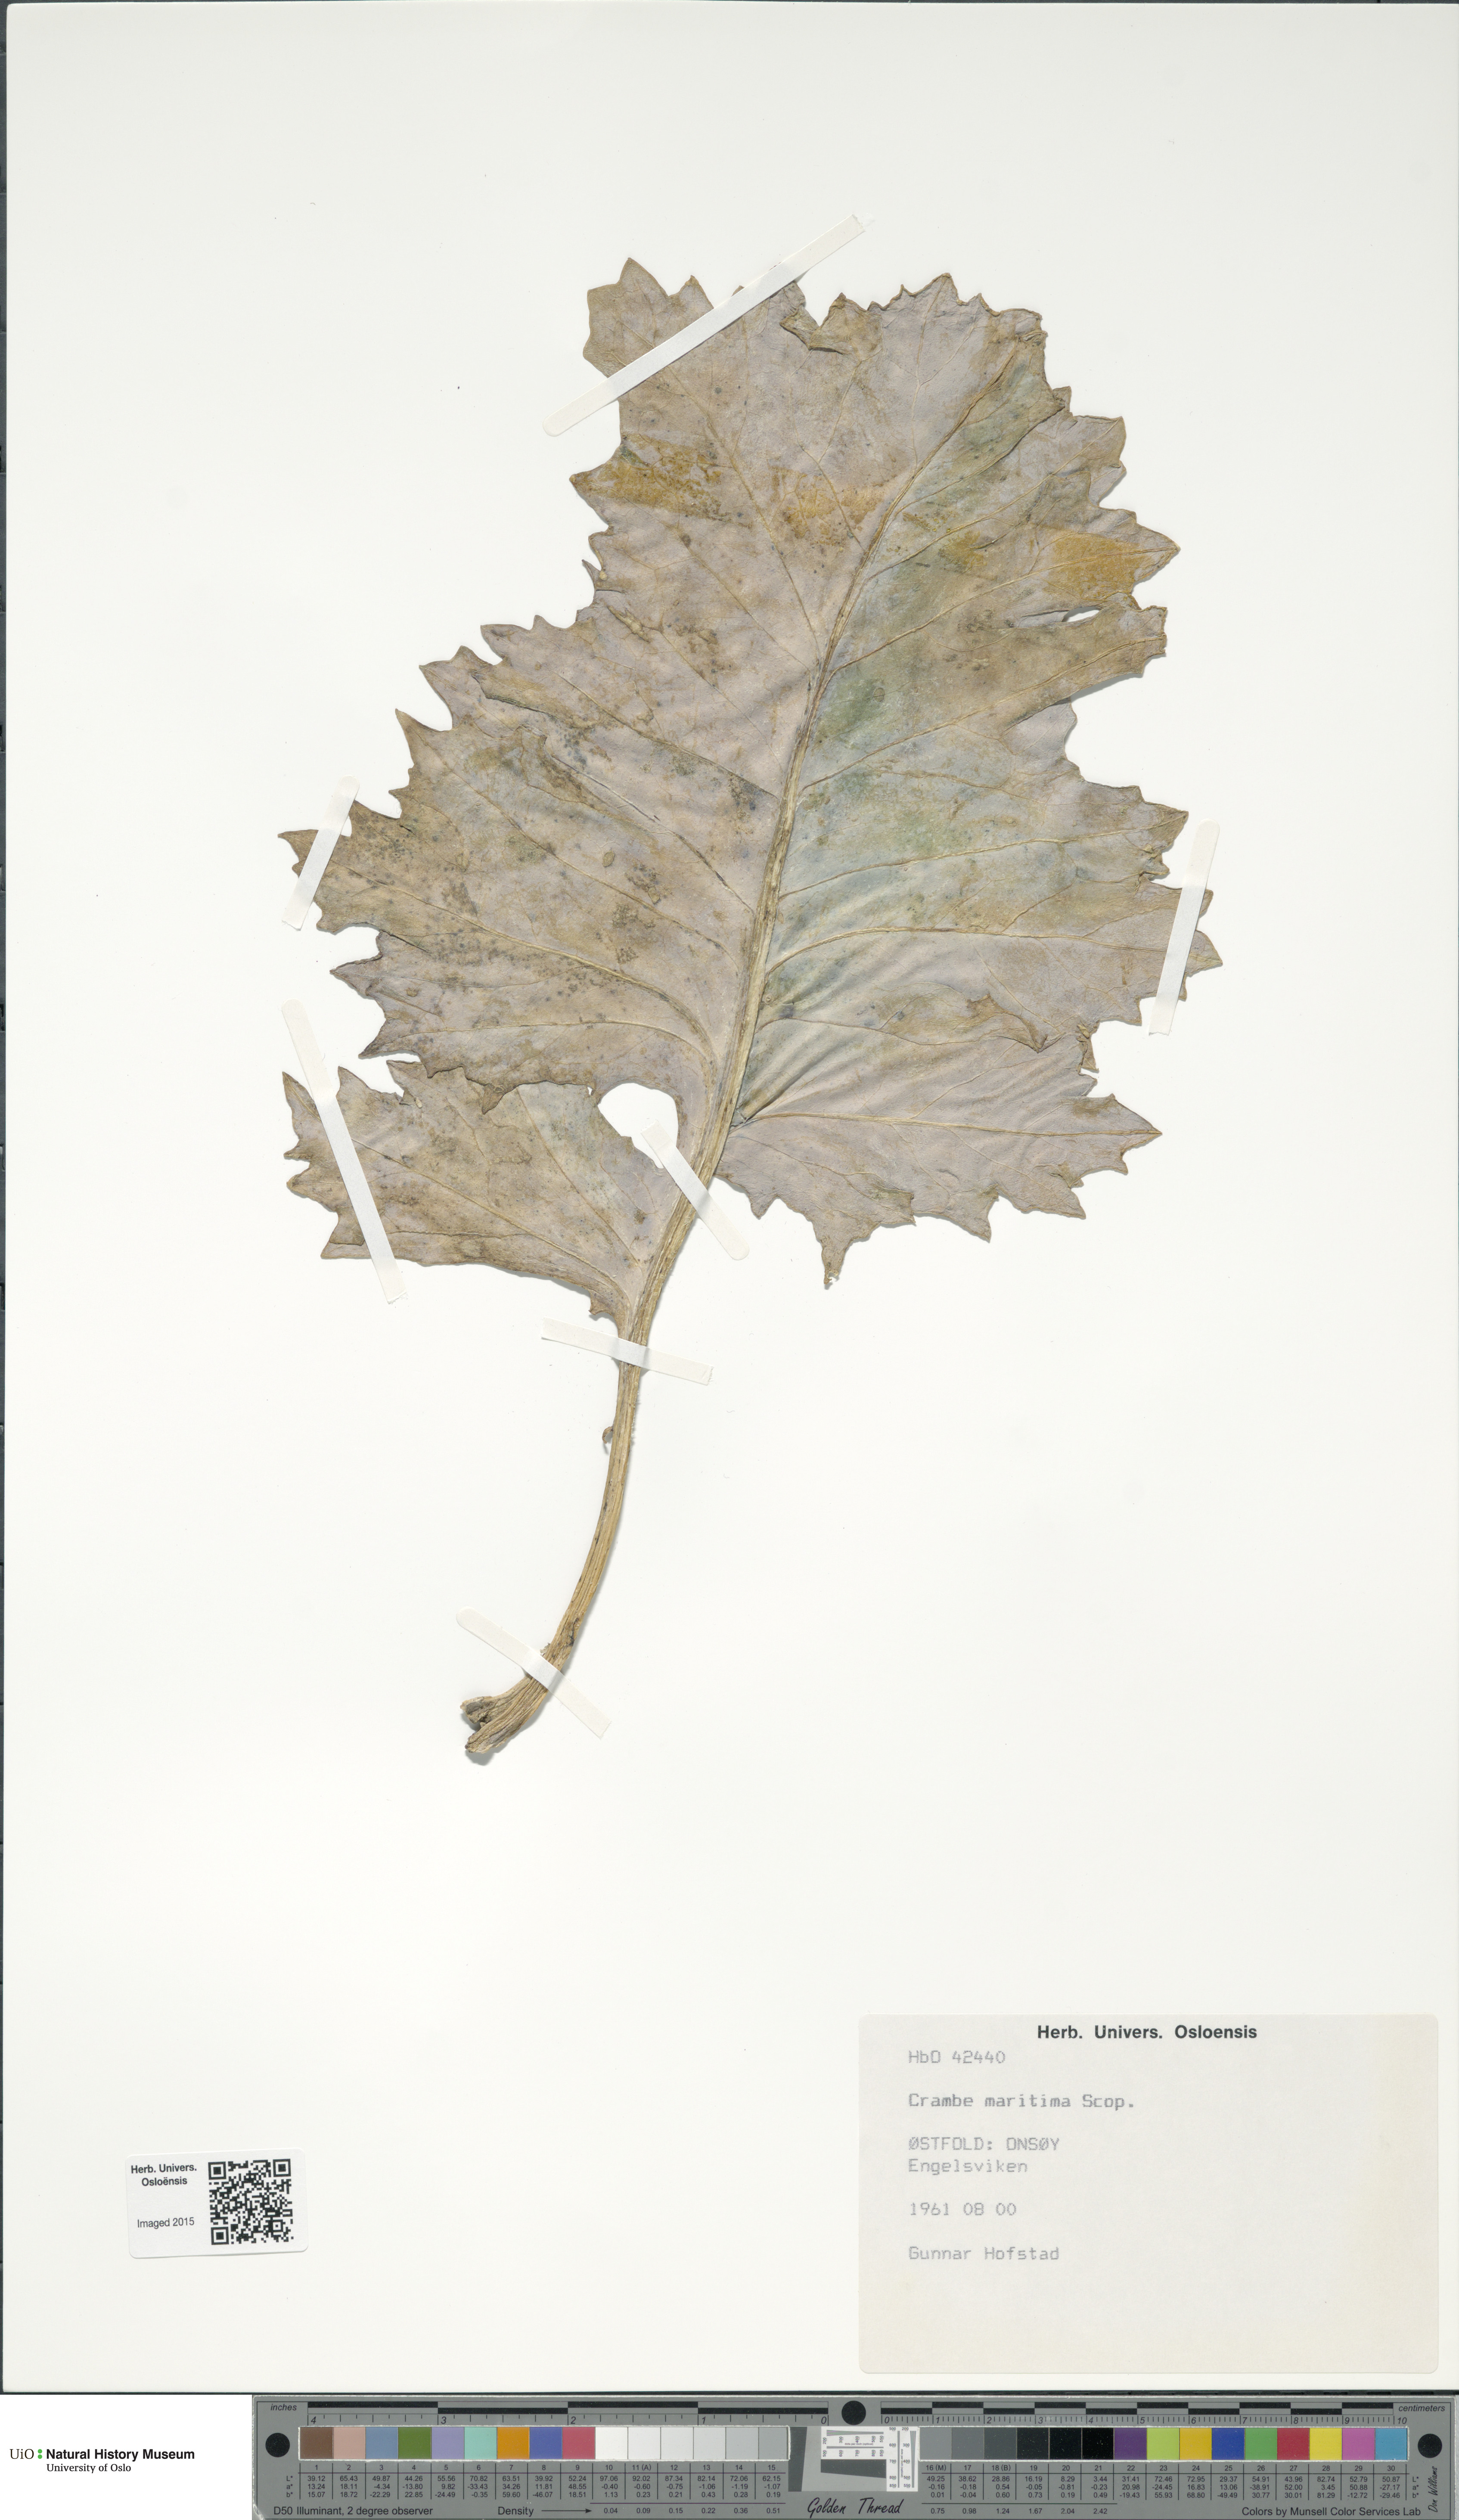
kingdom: Plantae
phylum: Tracheophyta
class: Magnoliopsida
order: Brassicales
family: Brassicaceae
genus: Crambe
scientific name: Crambe maritima
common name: Sea-kale
